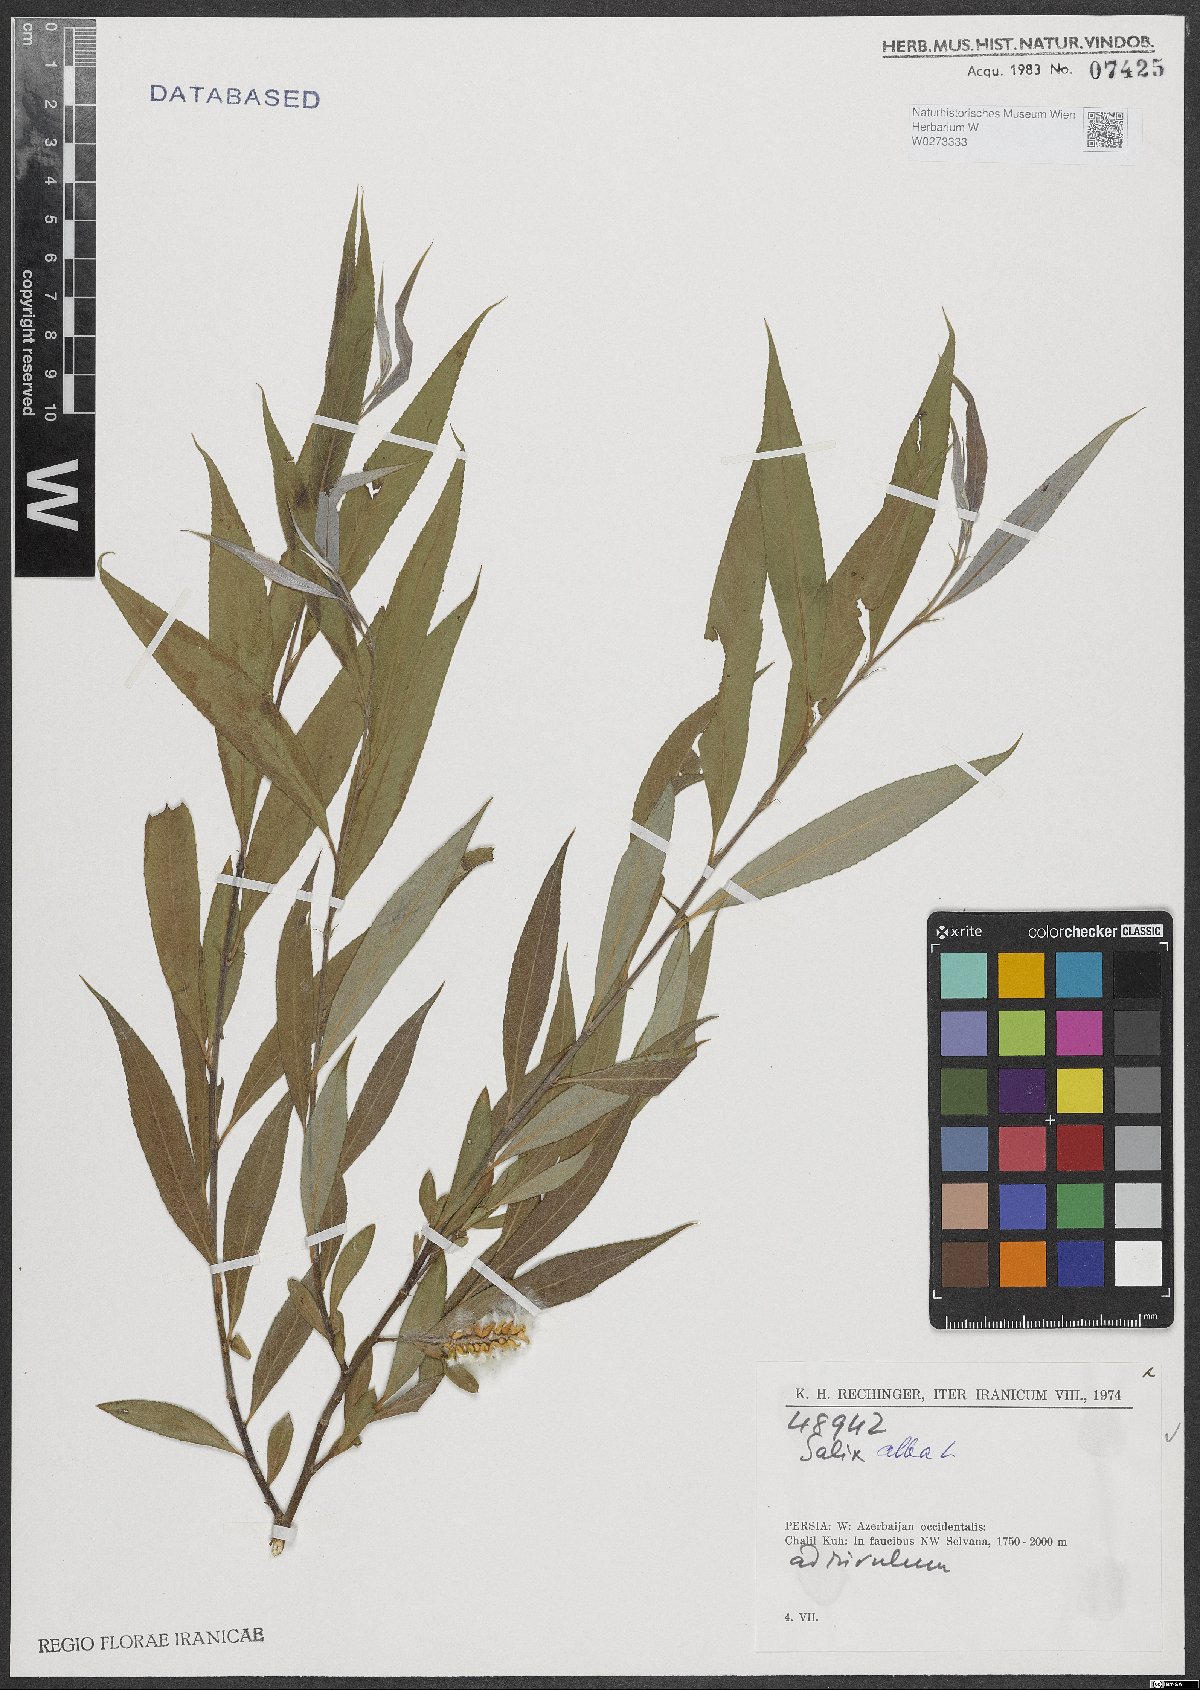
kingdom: Plantae
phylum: Tracheophyta
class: Magnoliopsida
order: Malpighiales
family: Salicaceae
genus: Salix
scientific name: Salix alba
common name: White willow
